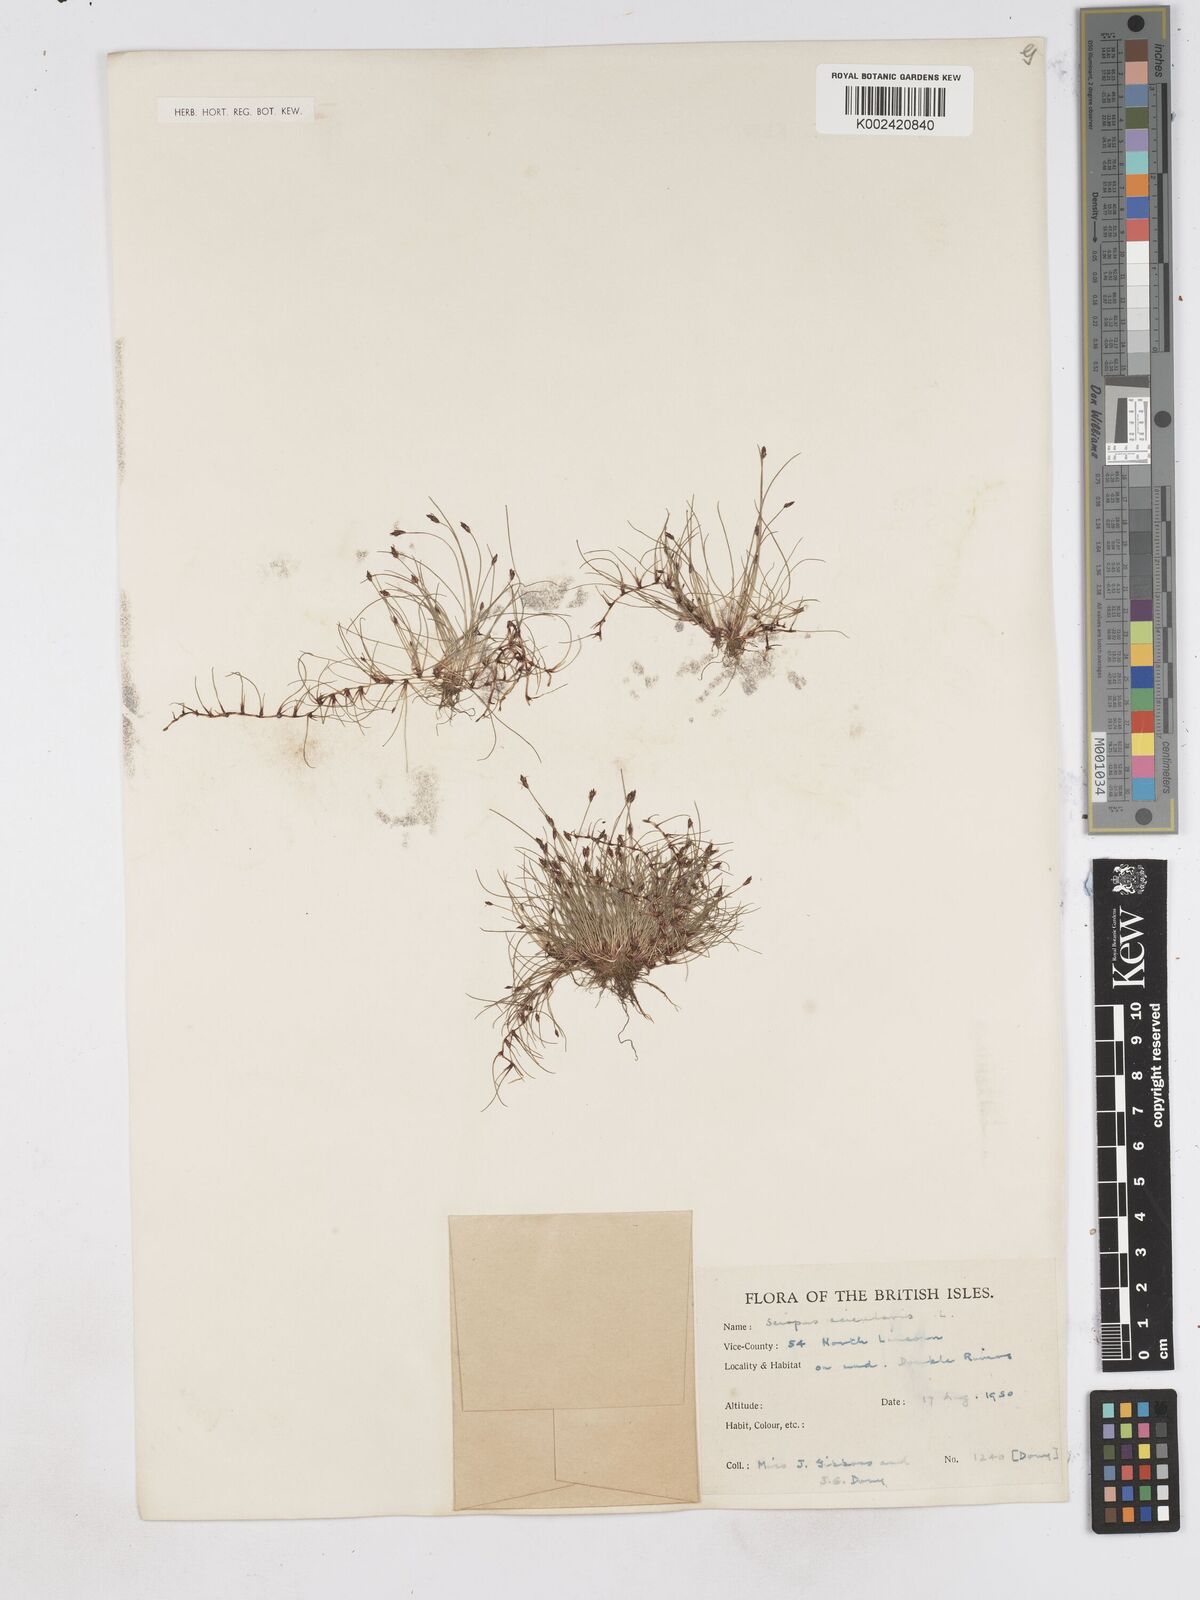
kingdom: Plantae
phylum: Tracheophyta
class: Liliopsida
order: Poales
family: Cyperaceae
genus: Eleocharis
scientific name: Eleocharis acicularis
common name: Needle spike-rush
